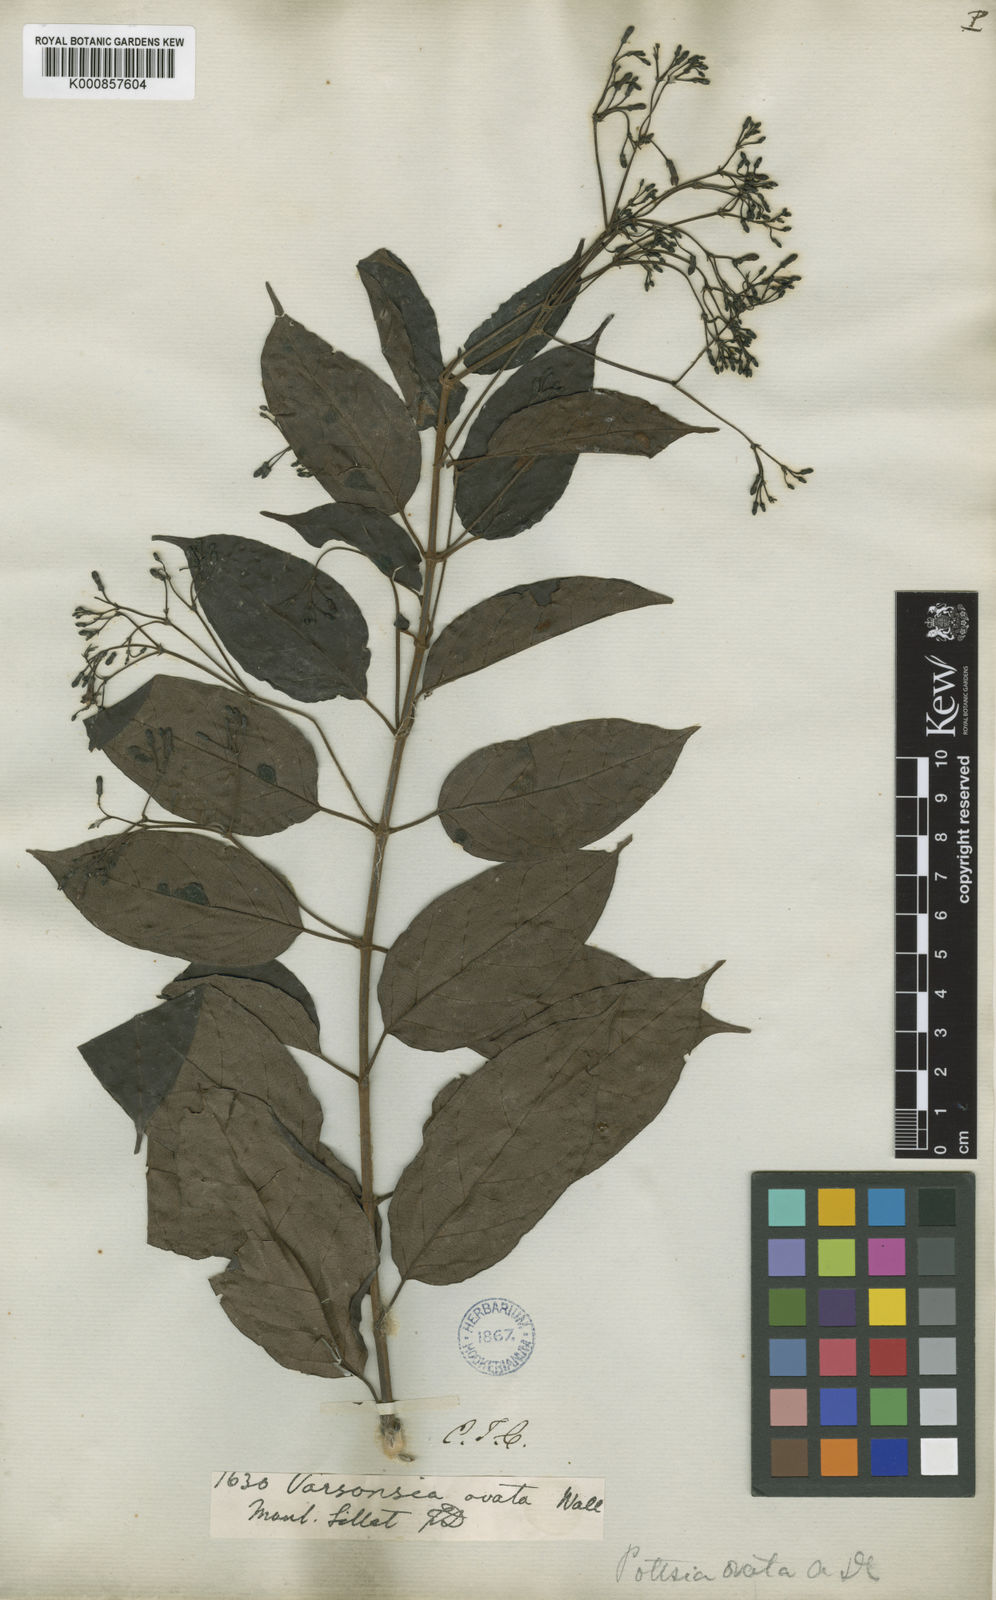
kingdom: Plantae
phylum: Tracheophyta
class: Magnoliopsida
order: Gentianales
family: Apocynaceae
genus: Pottsia
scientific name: Pottsia laxiflora
